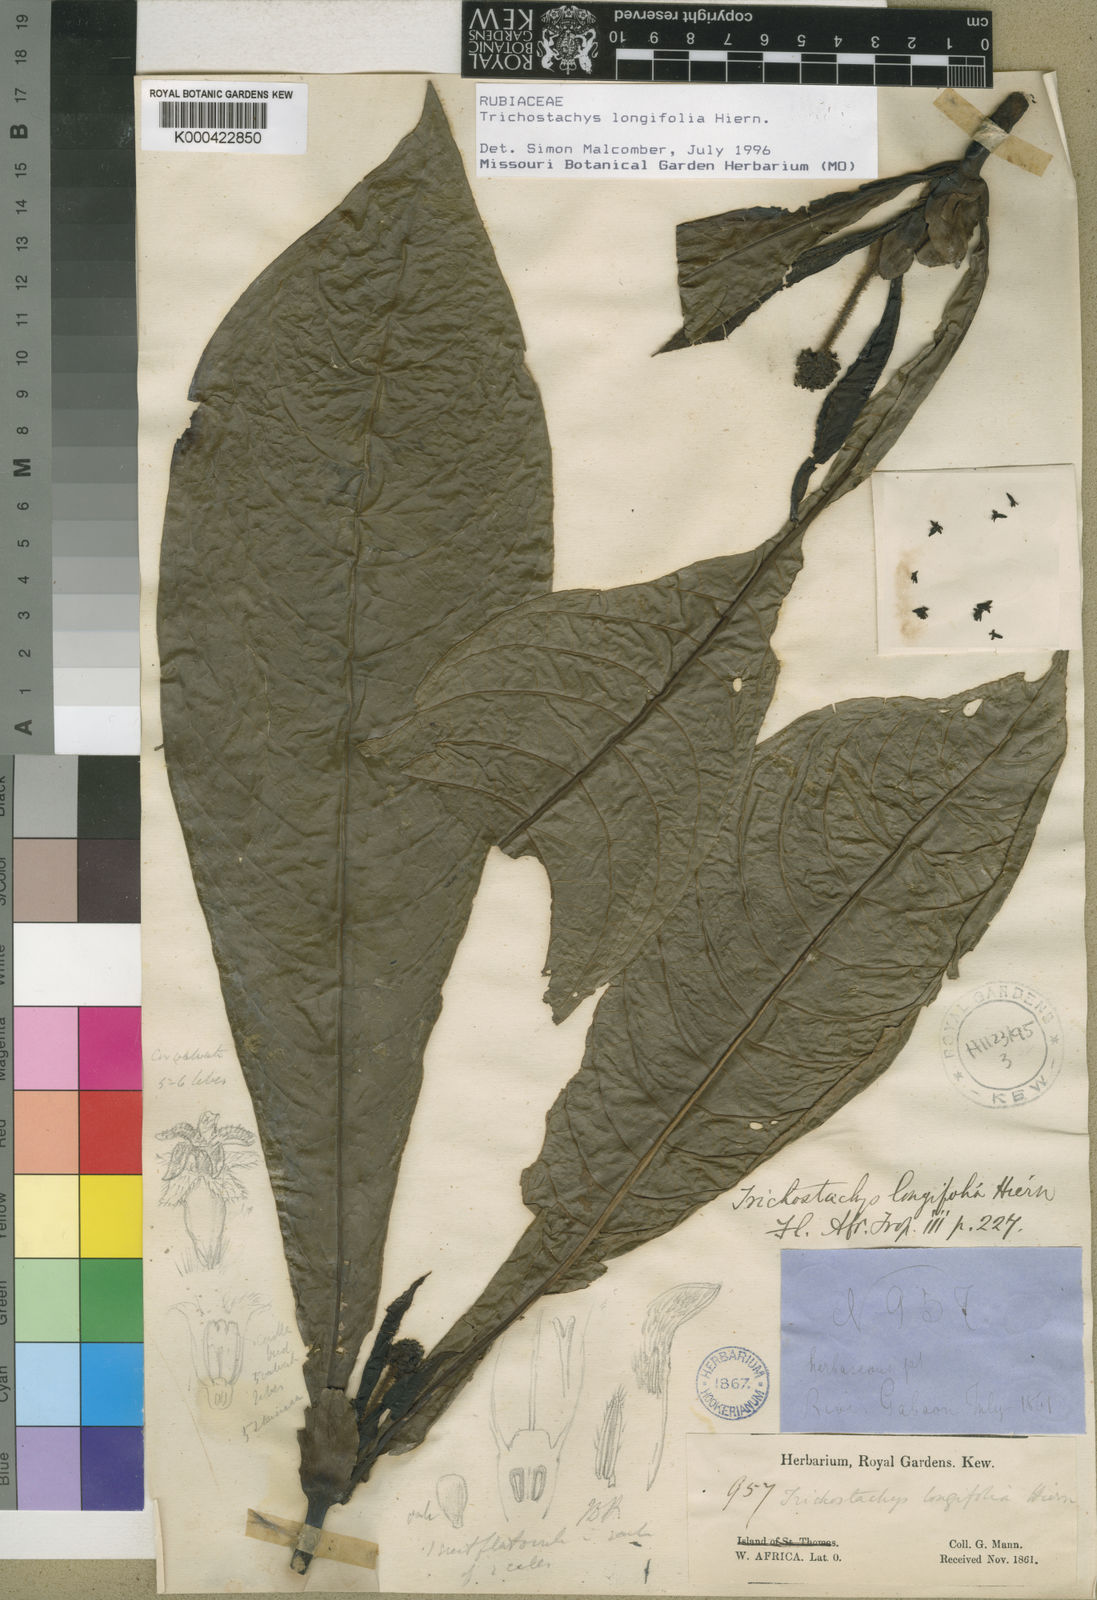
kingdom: Plantae
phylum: Tracheophyta
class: Magnoliopsida
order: Gentianales
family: Rubiaceae
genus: Trichostachys
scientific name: Trichostachys longifolia
